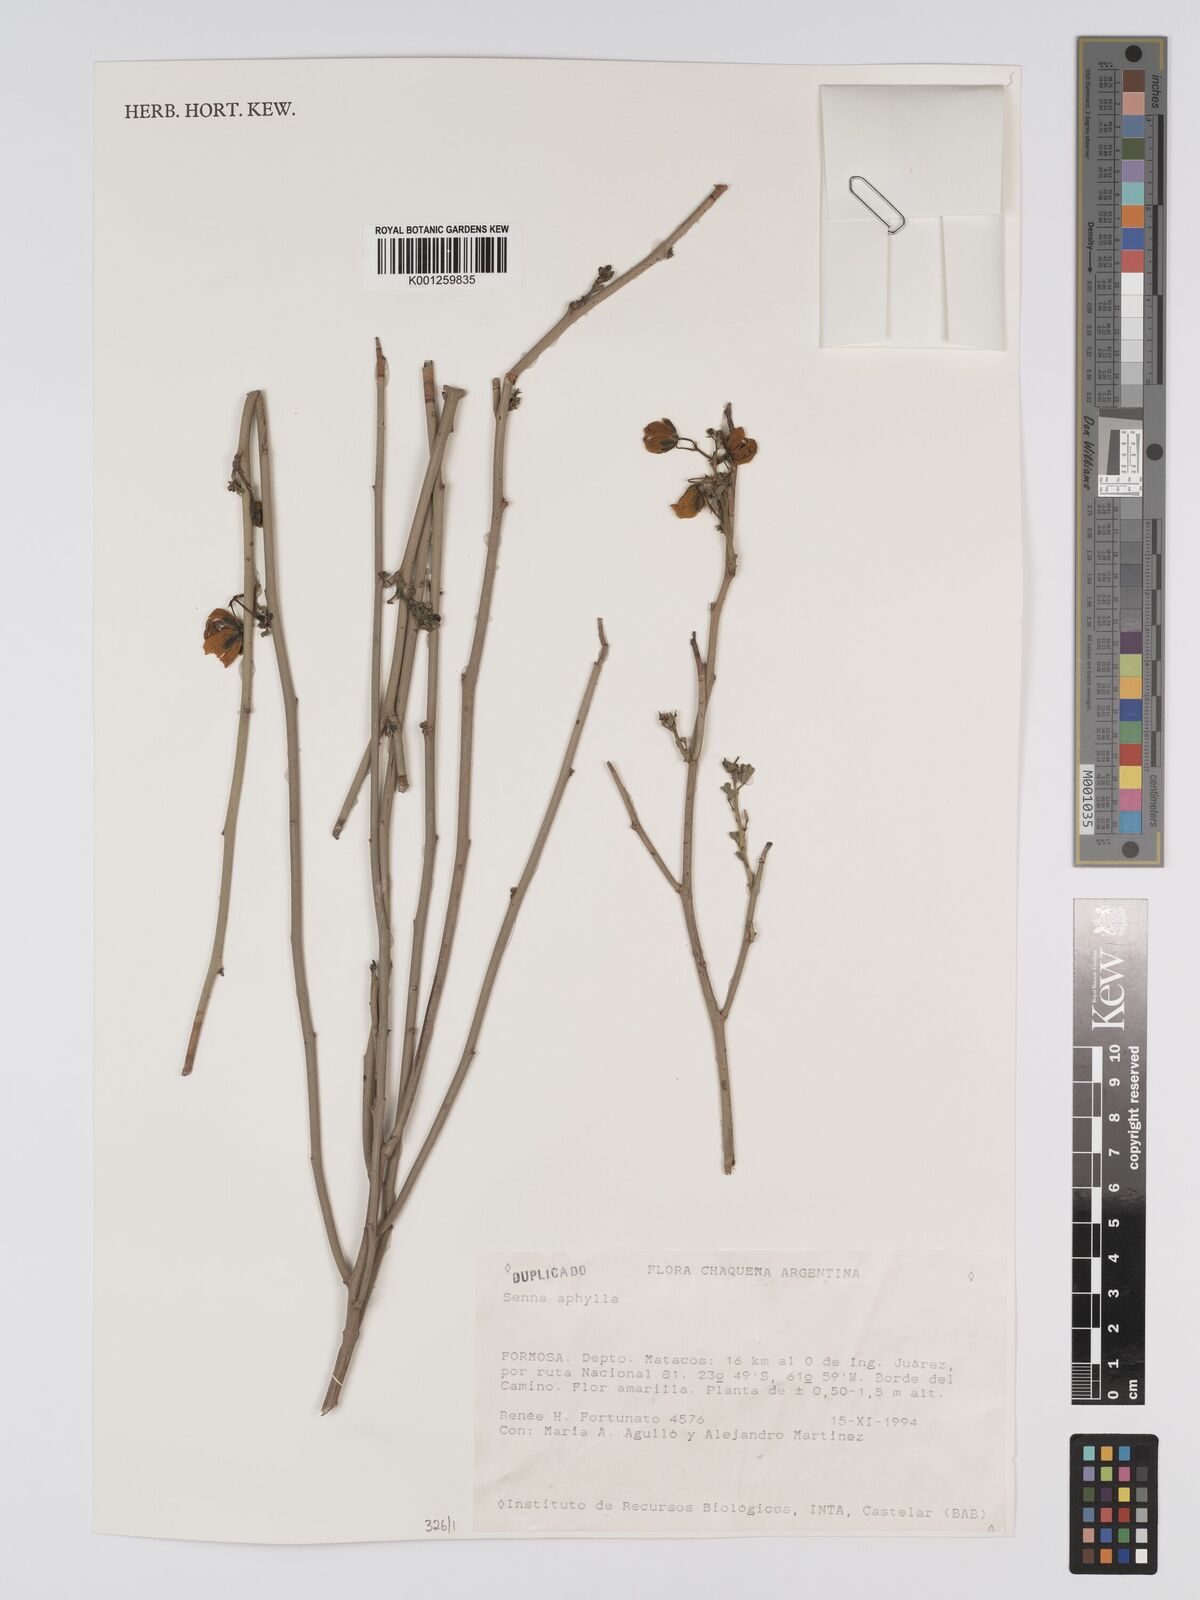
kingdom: Plantae
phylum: Tracheophyta
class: Magnoliopsida
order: Fabales
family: Fabaceae
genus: Senna
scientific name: Senna aphylla
